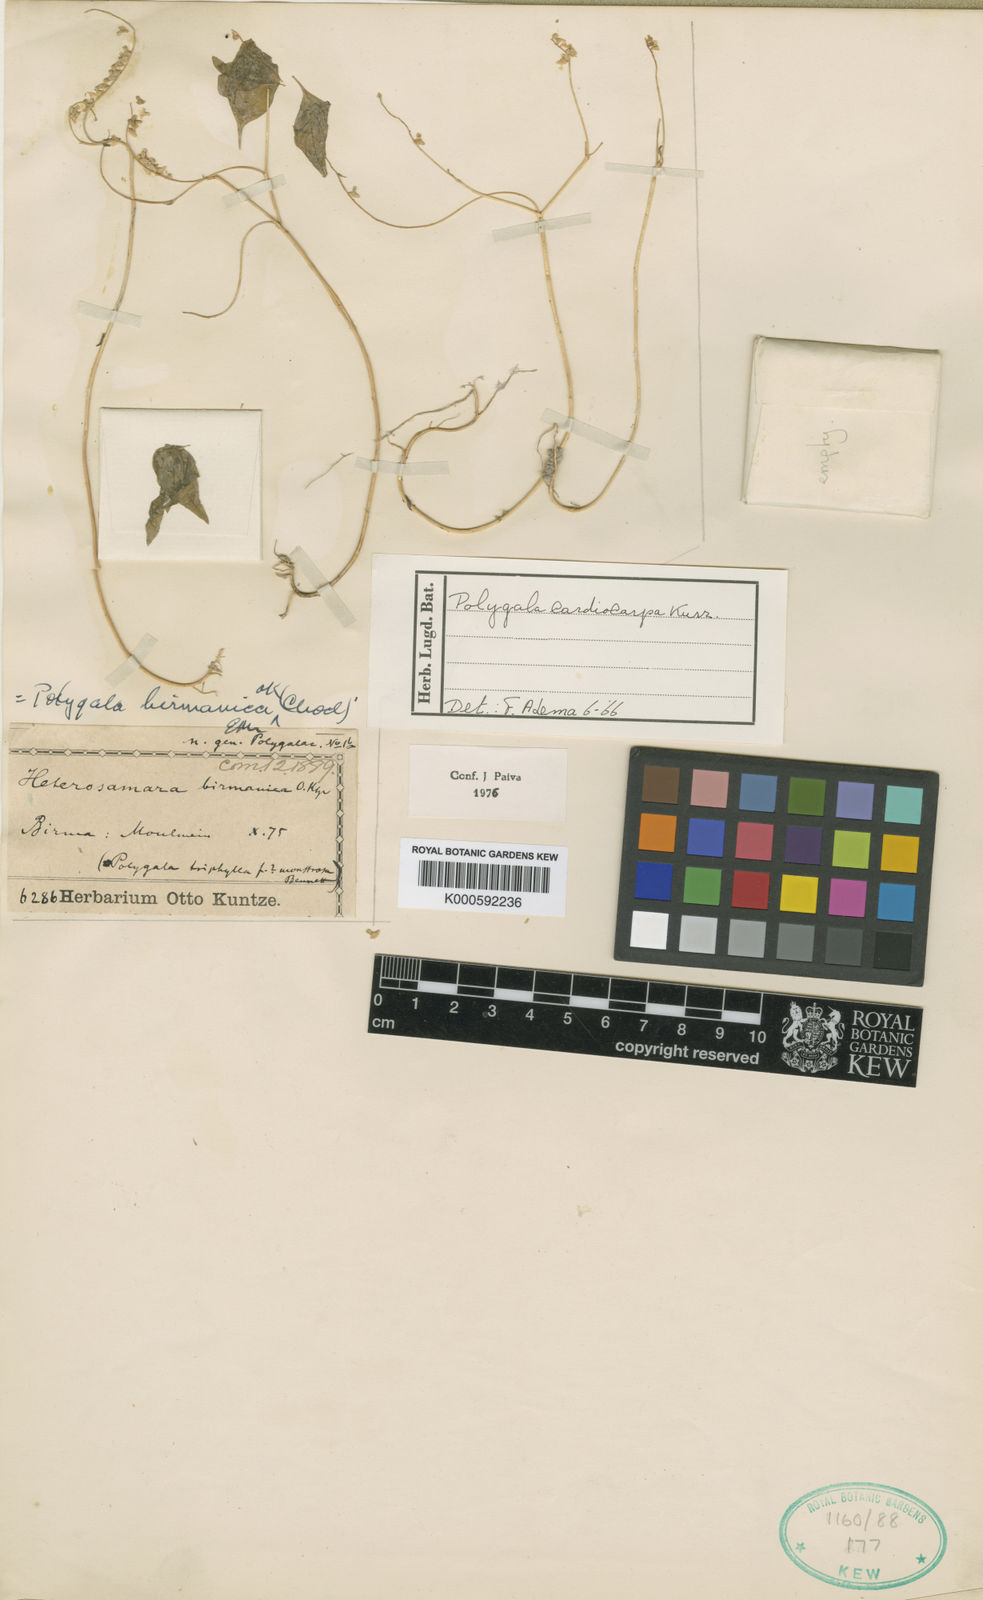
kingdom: Plantae
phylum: Tracheophyta
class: Magnoliopsida
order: Fabales
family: Polygalaceae
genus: Polygala
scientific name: Polygala cardiocarpa
